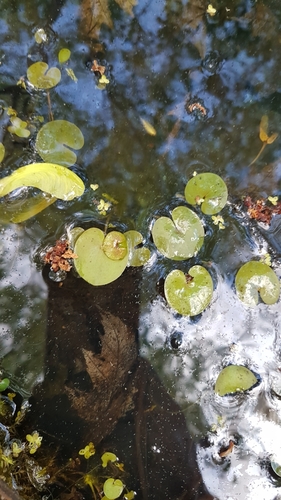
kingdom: Plantae
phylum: Tracheophyta
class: Liliopsida
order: Alismatales
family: Hydrocharitaceae
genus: Hydrocharis
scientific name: Hydrocharis morsus-ranae
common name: European frog-bit
